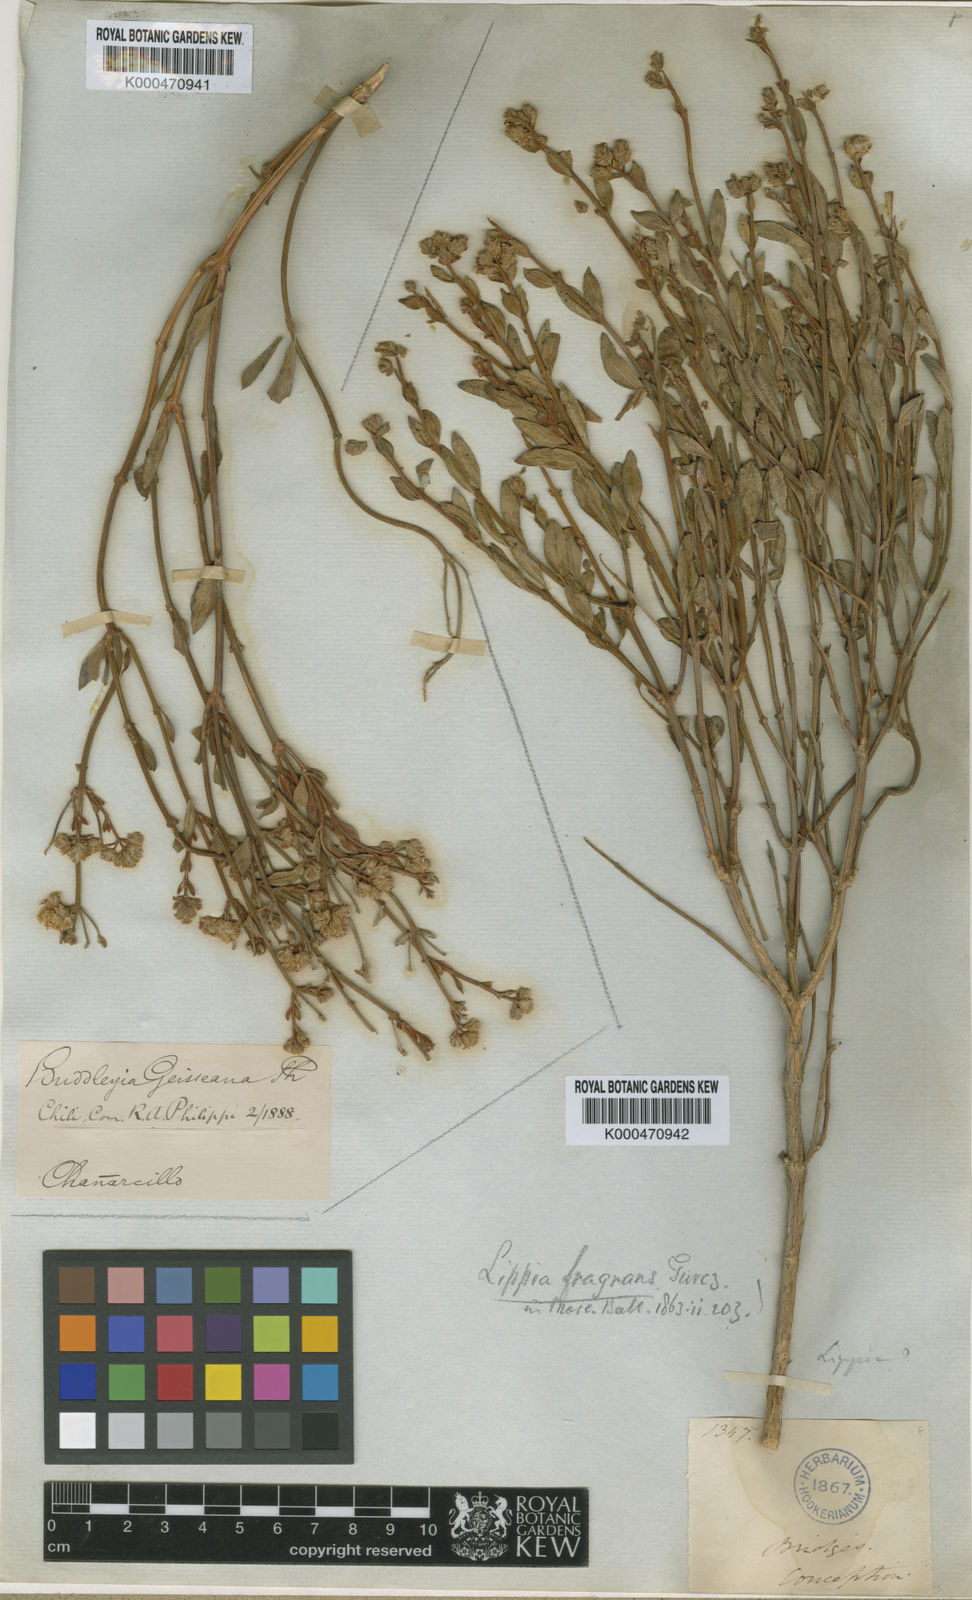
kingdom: Plantae
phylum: Tracheophyta
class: Magnoliopsida
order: Lamiales
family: Verbenaceae
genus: Lippia
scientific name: Lippia fragrans
